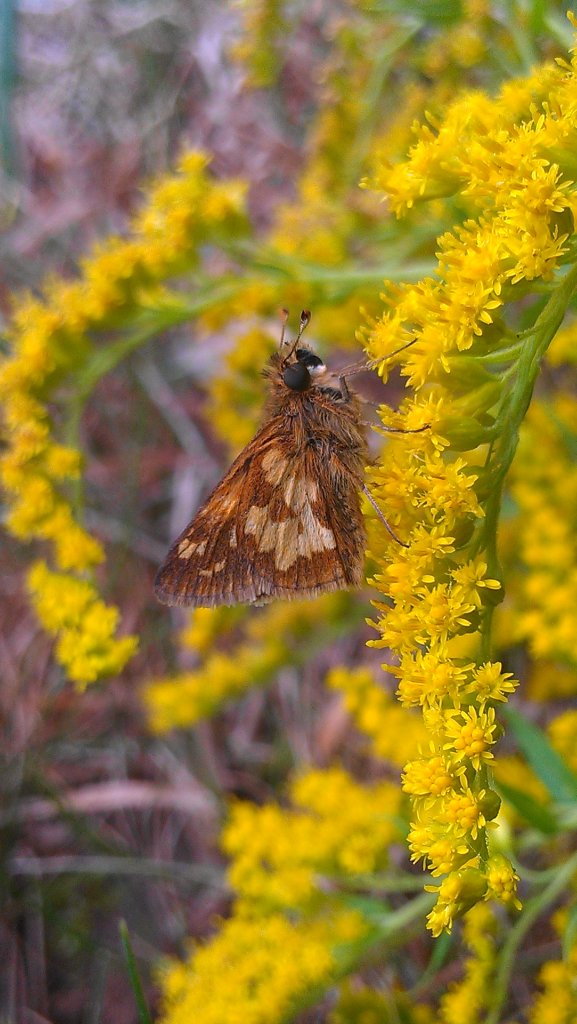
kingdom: Animalia
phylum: Arthropoda
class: Insecta
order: Lepidoptera
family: Hesperiidae
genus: Polites
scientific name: Polites coras
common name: Peck's Skipper
